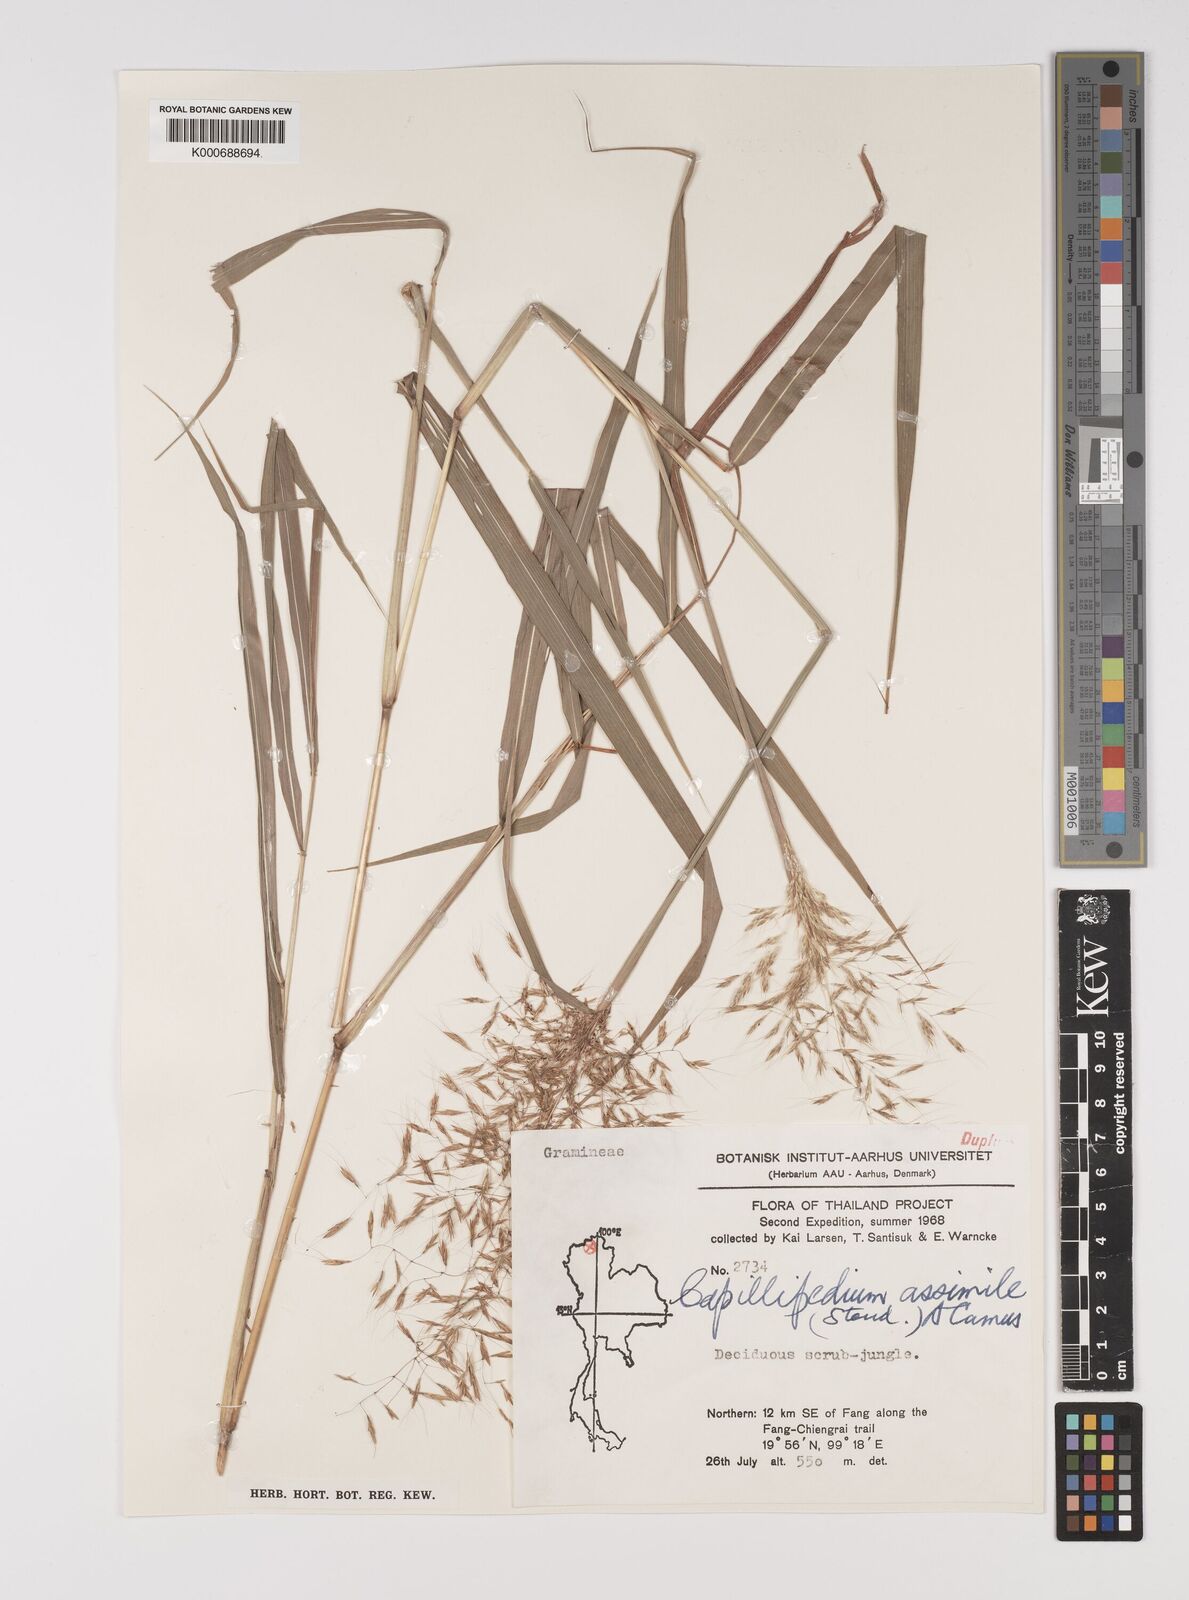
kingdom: Plantae
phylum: Tracheophyta
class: Liliopsida
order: Poales
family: Poaceae
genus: Capillipedium
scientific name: Capillipedium spicigerum
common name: Scented-top grass
